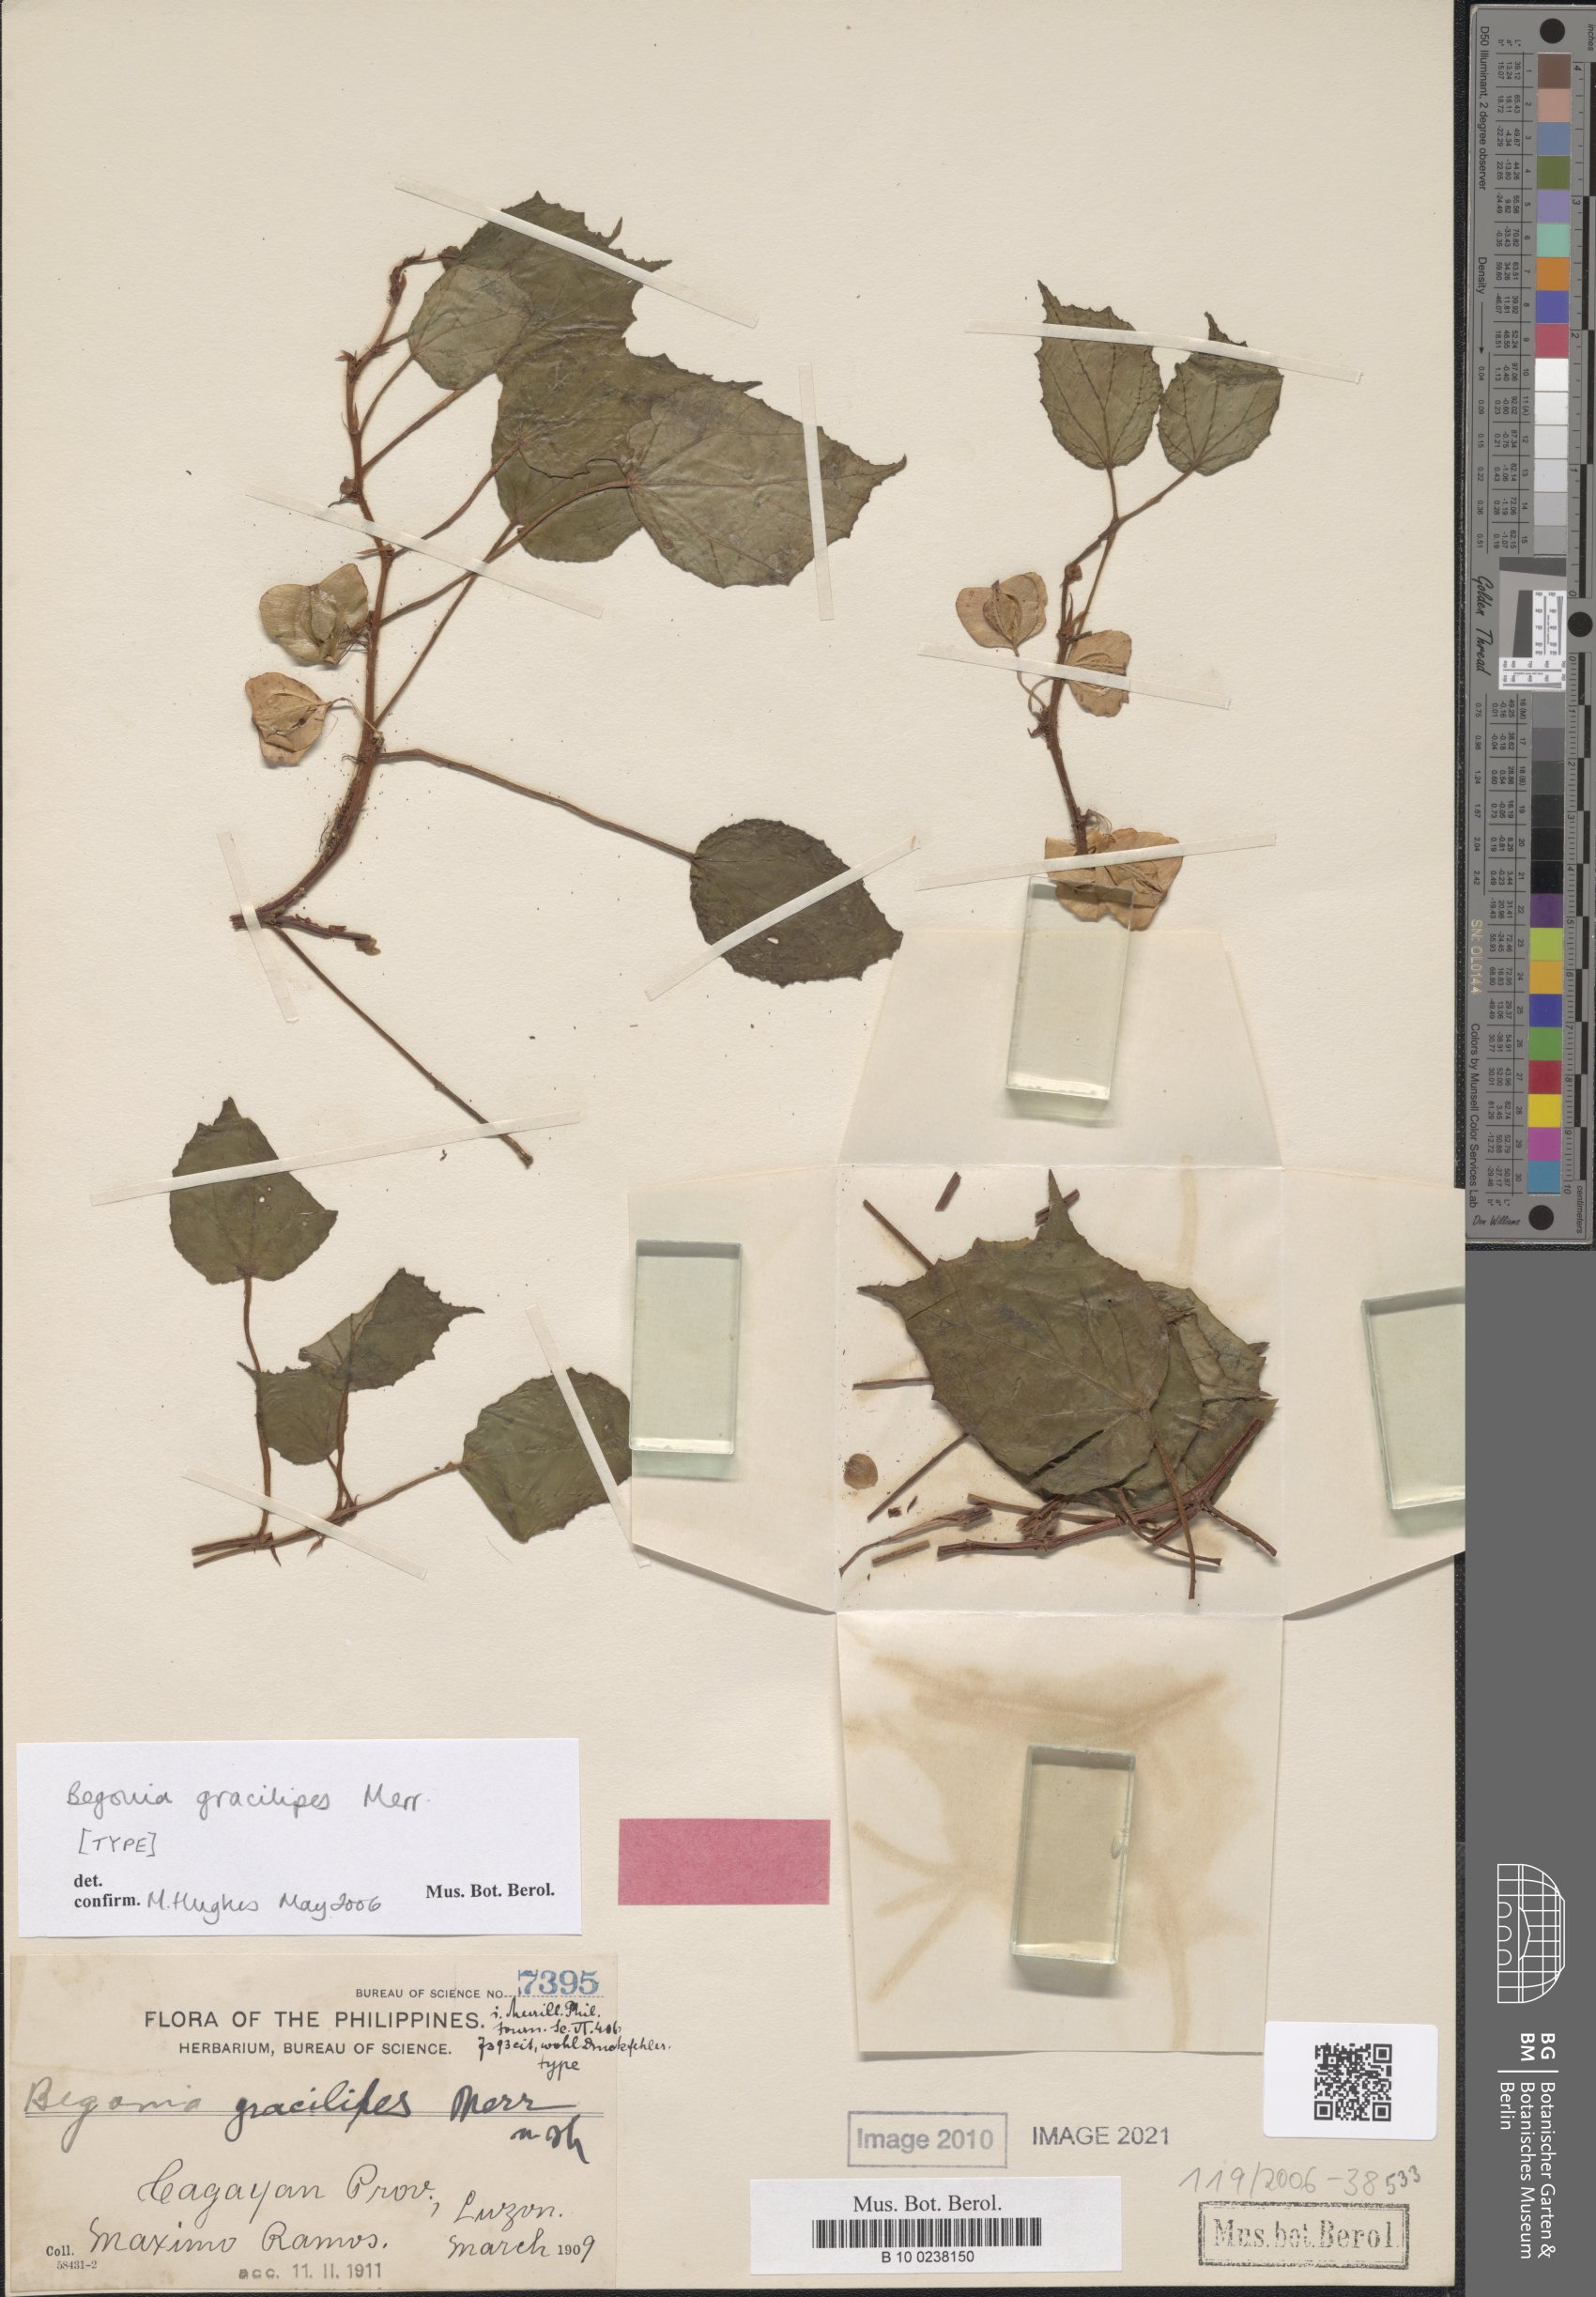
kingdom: Plantae
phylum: Tracheophyta
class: Magnoliopsida
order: Cucurbitales
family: Begoniaceae
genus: Begonia
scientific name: Begonia gracilipes
